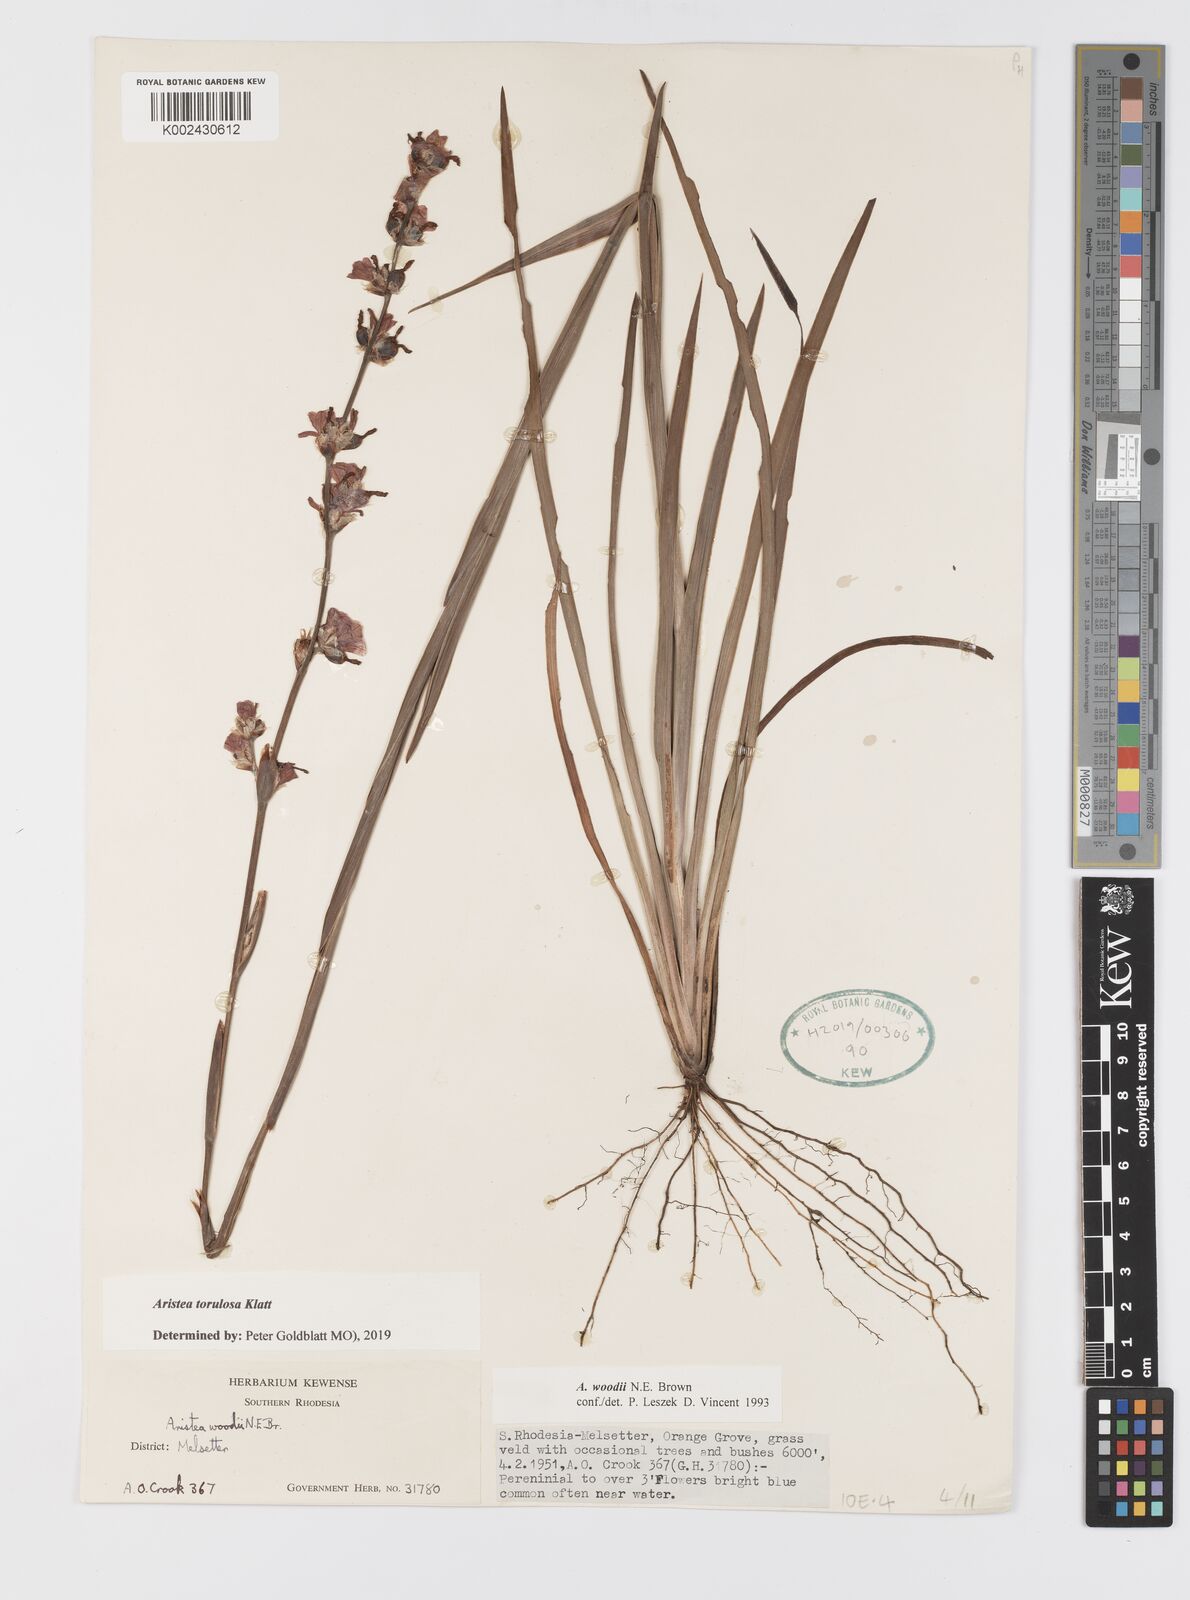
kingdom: Plantae
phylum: Tracheophyta
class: Liliopsida
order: Asparagales
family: Iridaceae
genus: Aristea
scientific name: Aristea torulosa
